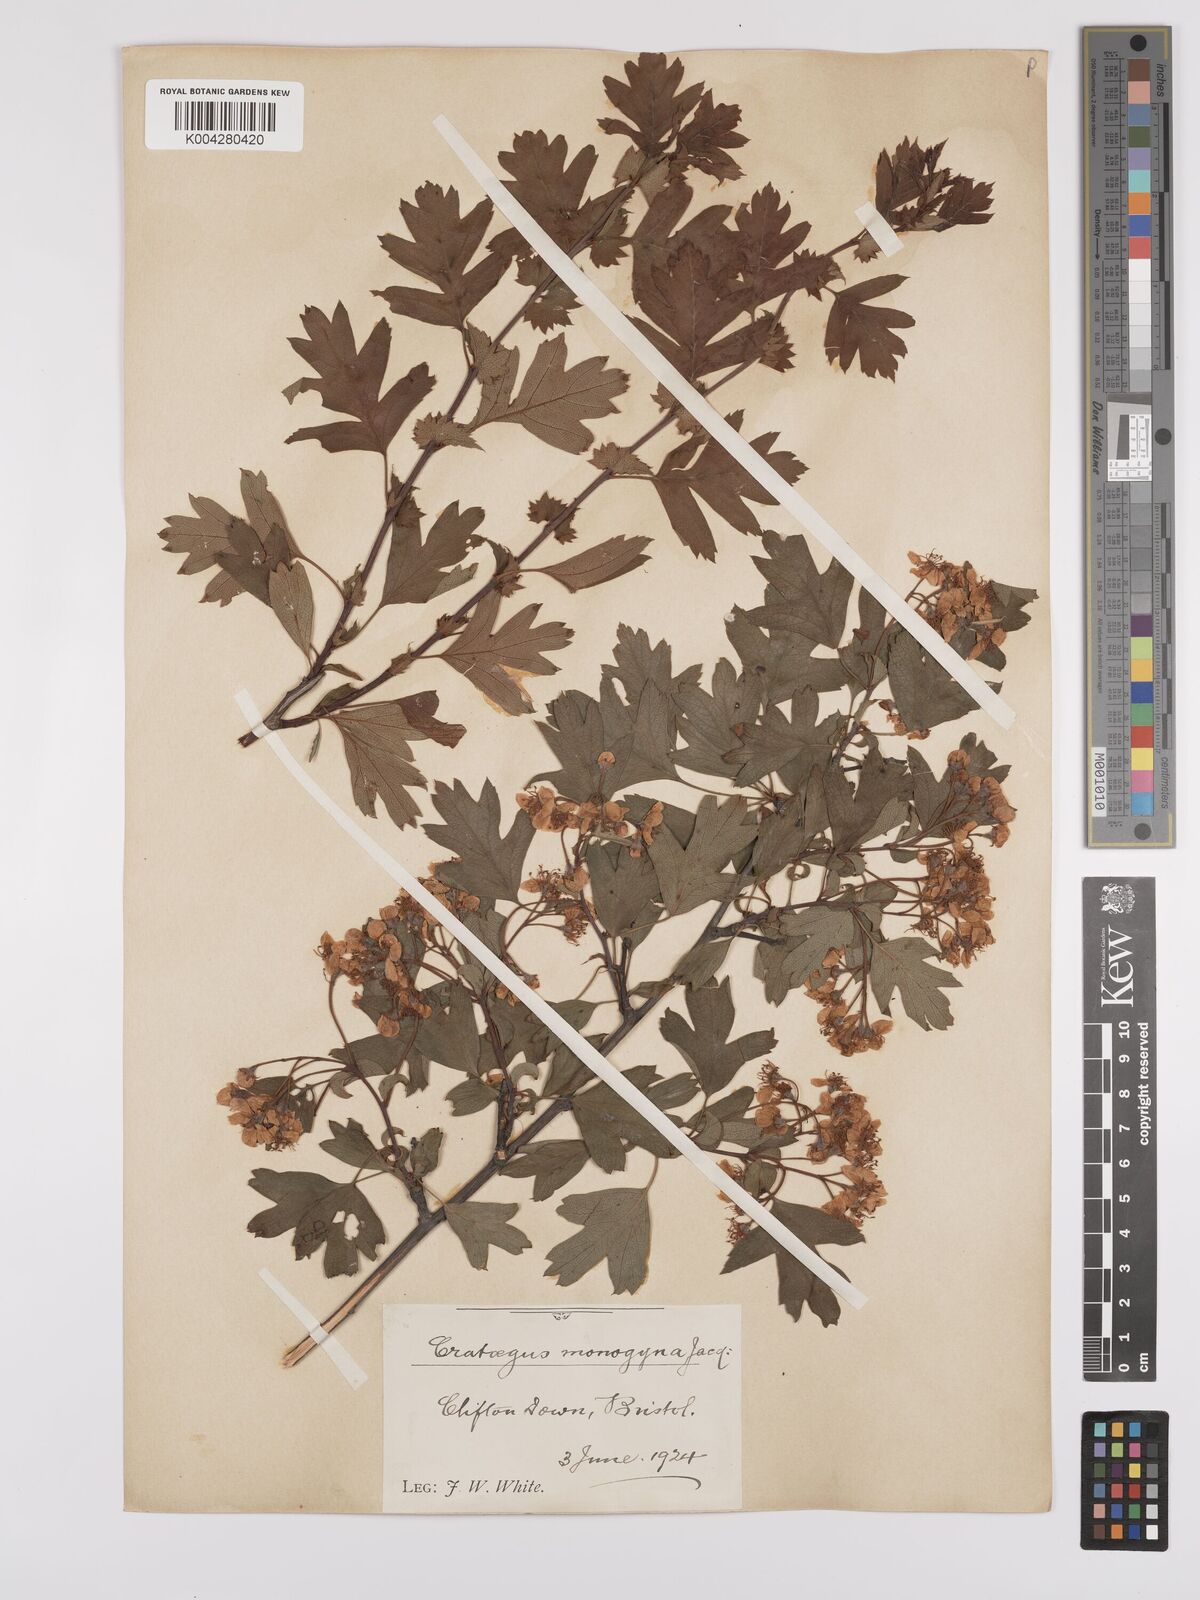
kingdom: Plantae
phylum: Tracheophyta
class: Magnoliopsida
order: Rosales
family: Rosaceae
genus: Crataegus
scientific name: Crataegus monogyna
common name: Hawthorn
